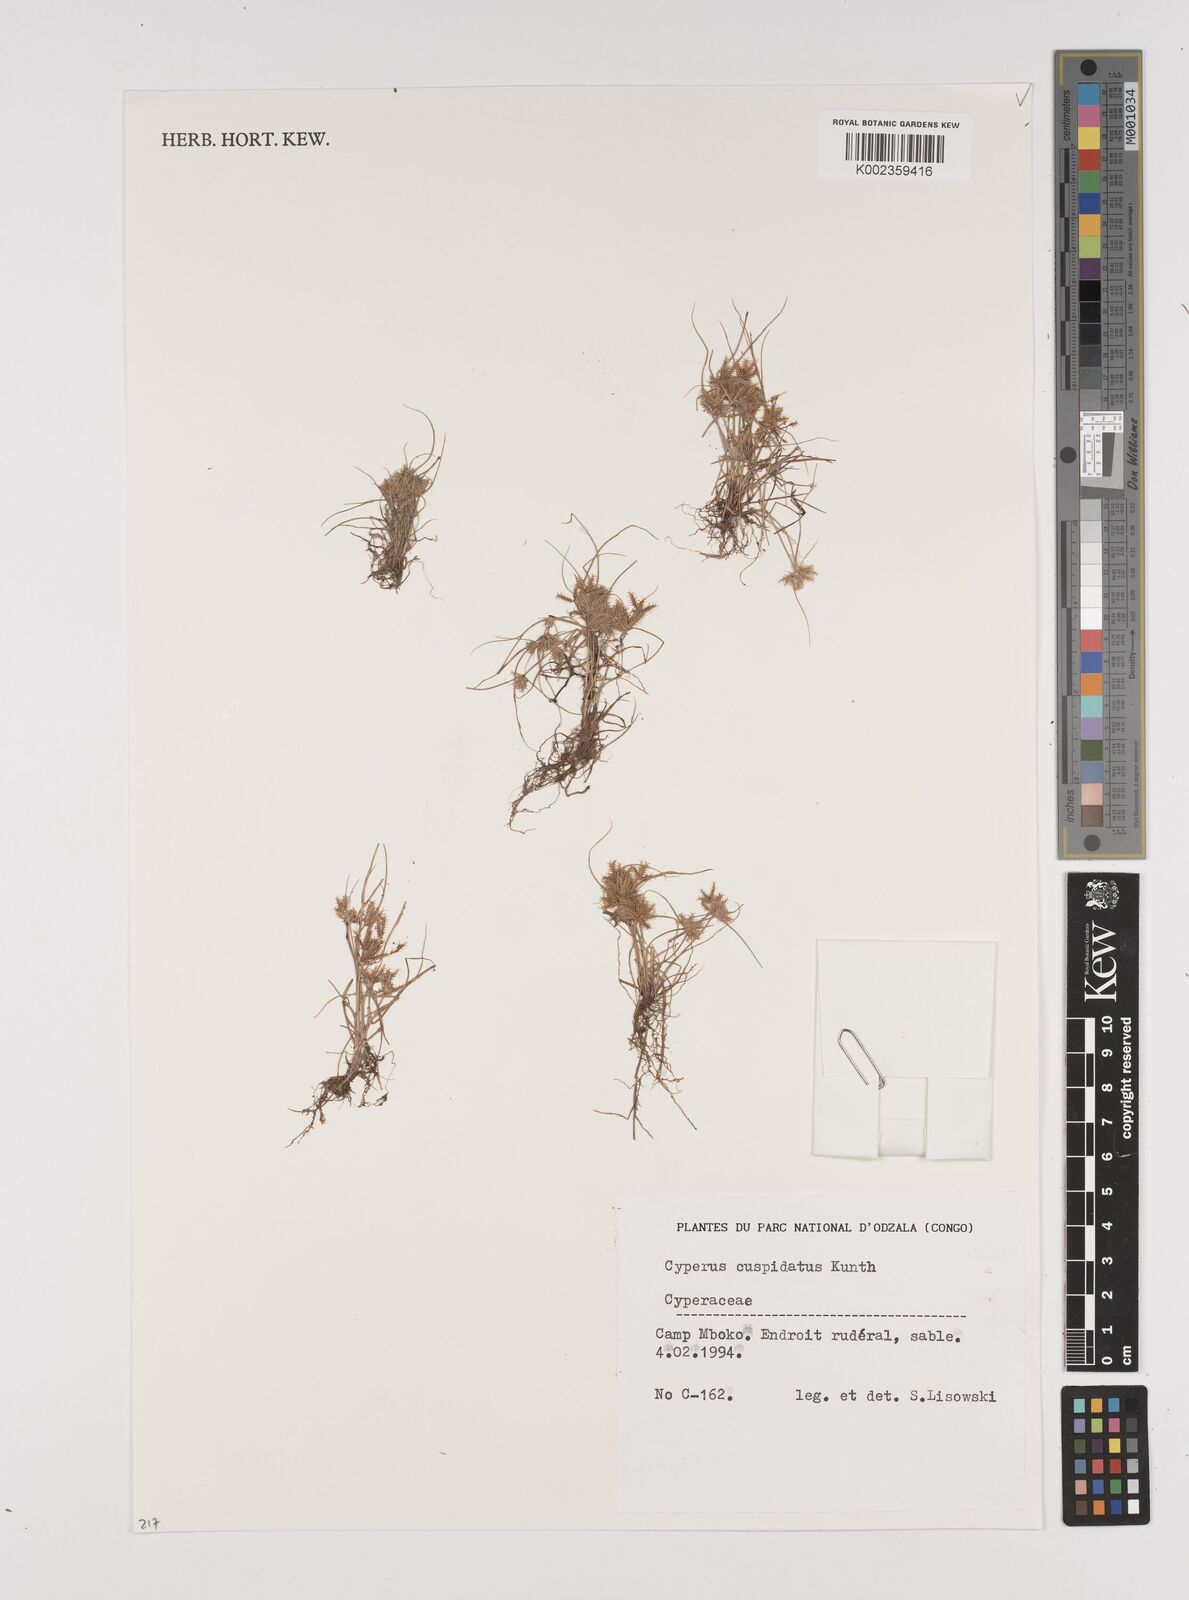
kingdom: Plantae
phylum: Tracheophyta
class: Liliopsida
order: Poales
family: Cyperaceae
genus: Cyperus
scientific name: Cyperus cuspidatus
